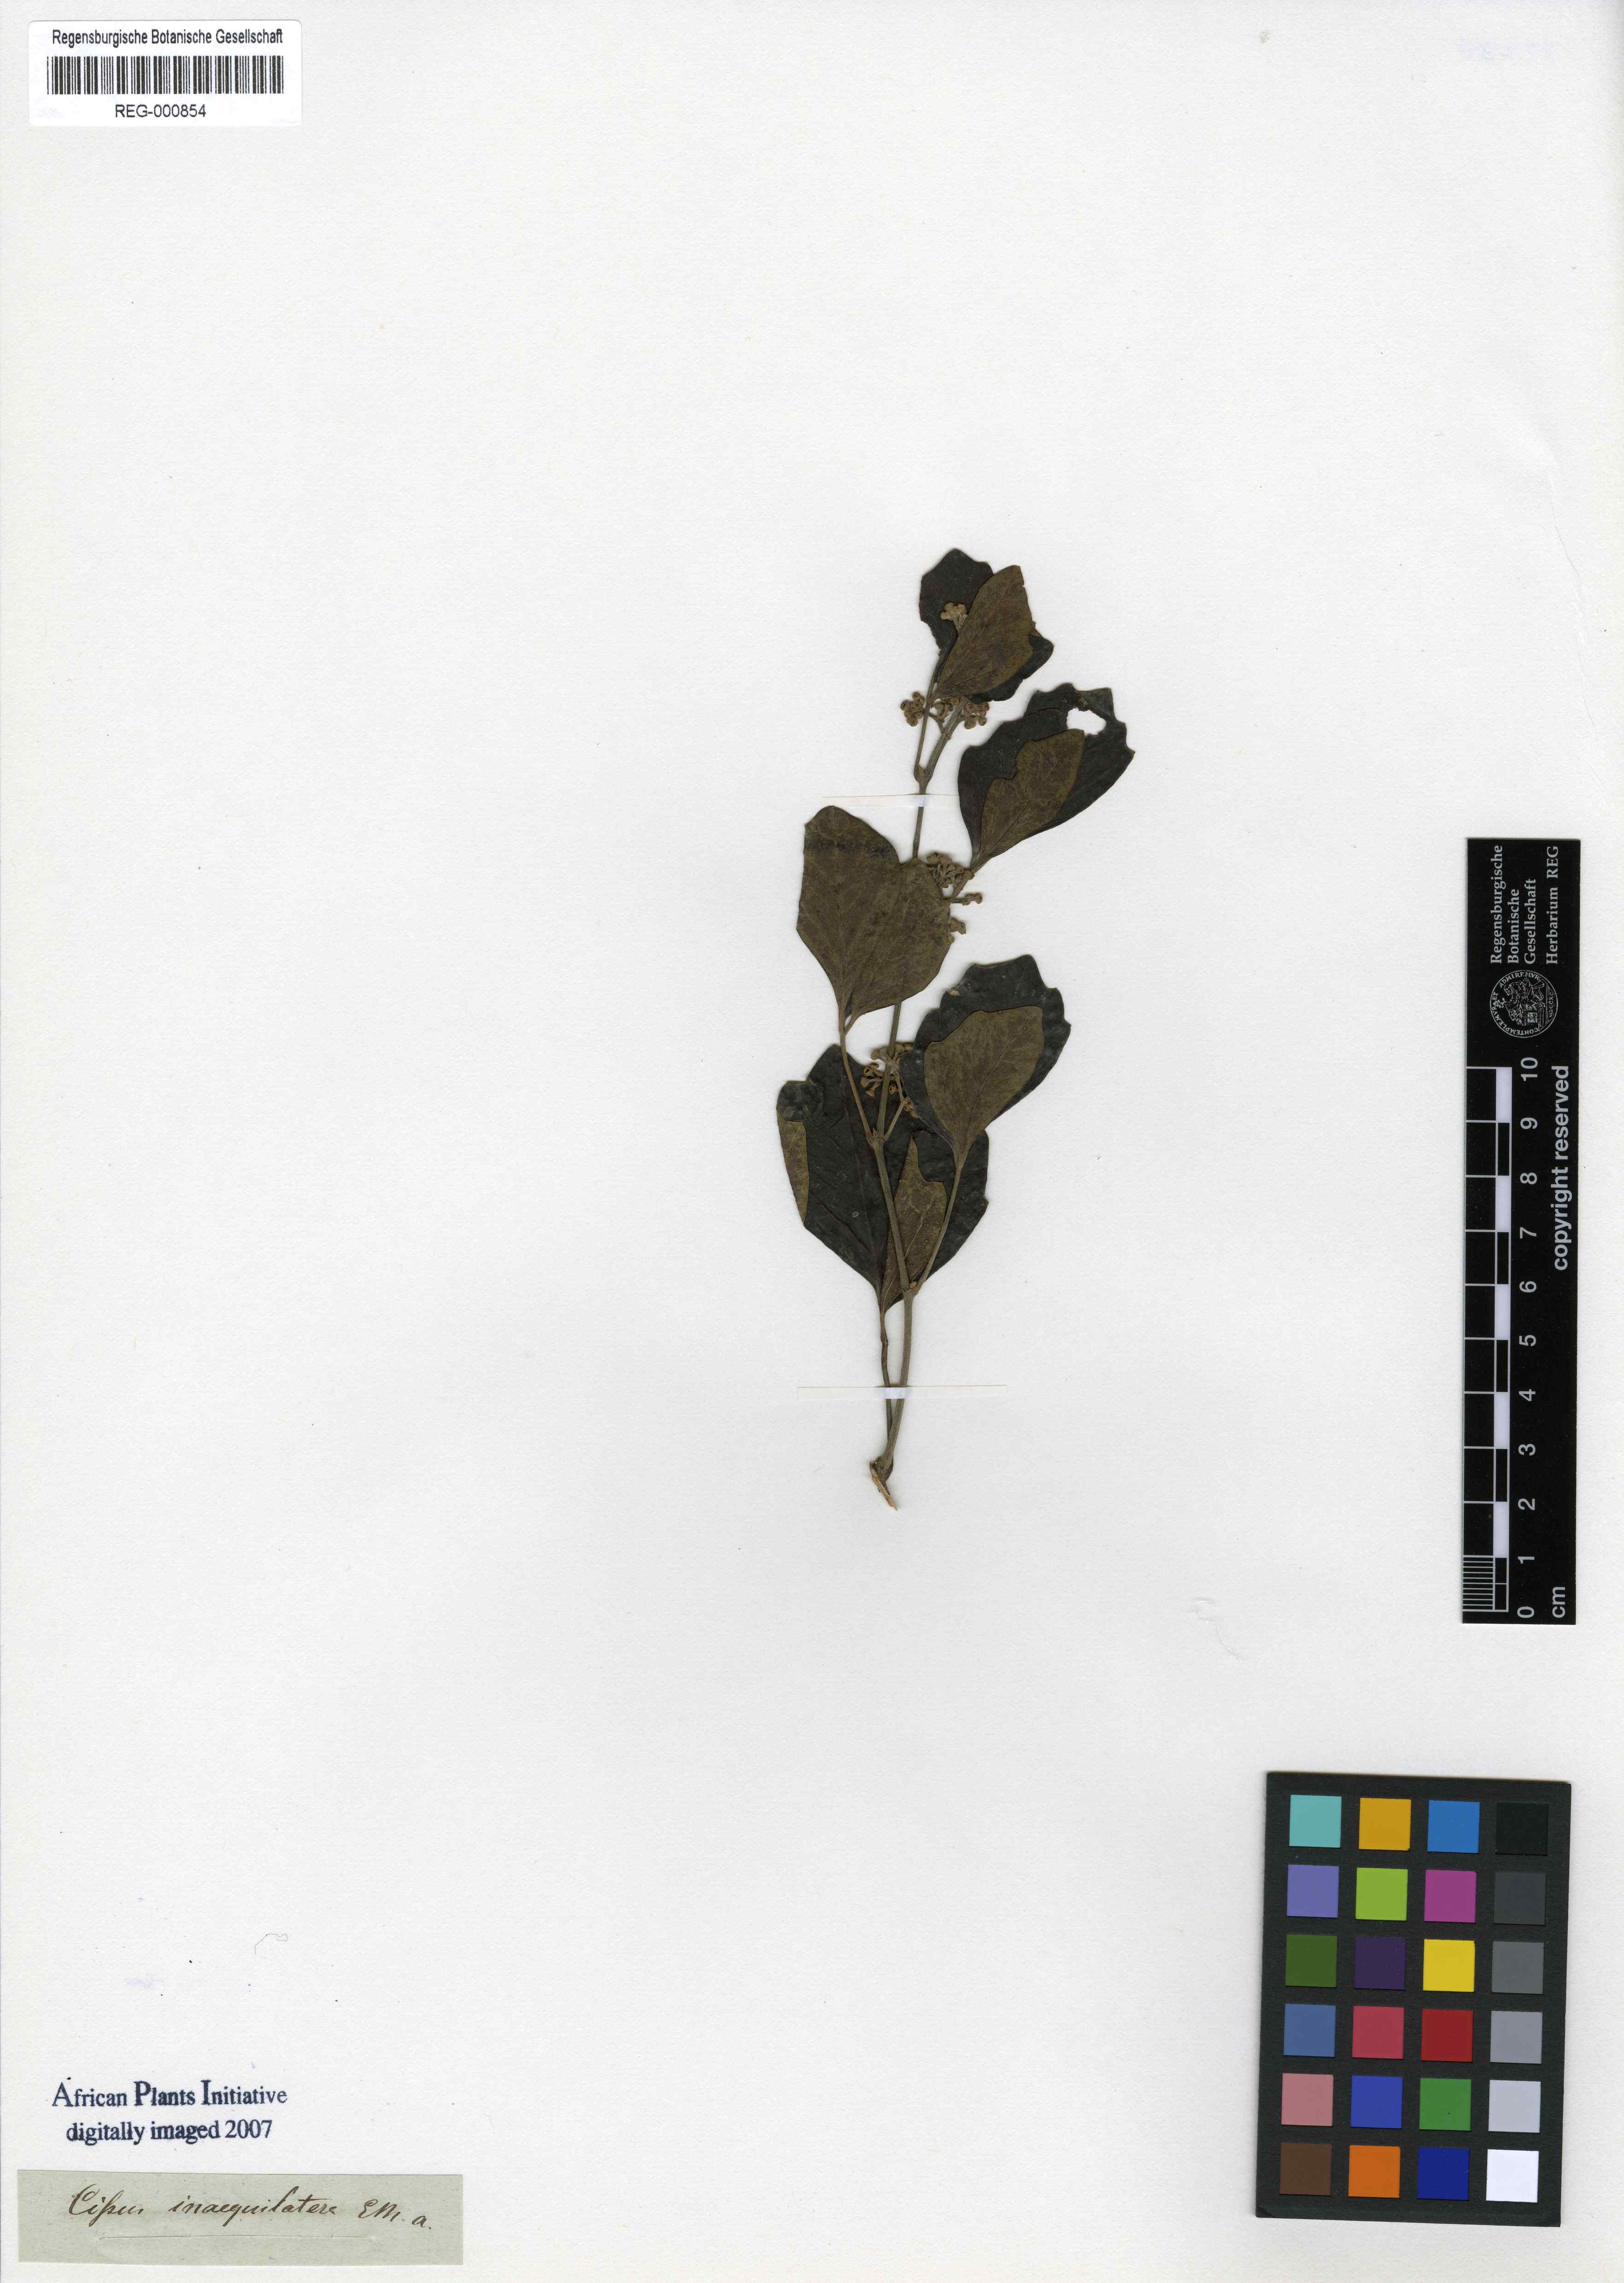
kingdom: Plantae
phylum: Tracheophyta
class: Magnoliopsida
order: Vitales
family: Vitaceae
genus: Rhoicissus
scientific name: Rhoicissus tridentata
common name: Common forest grape
